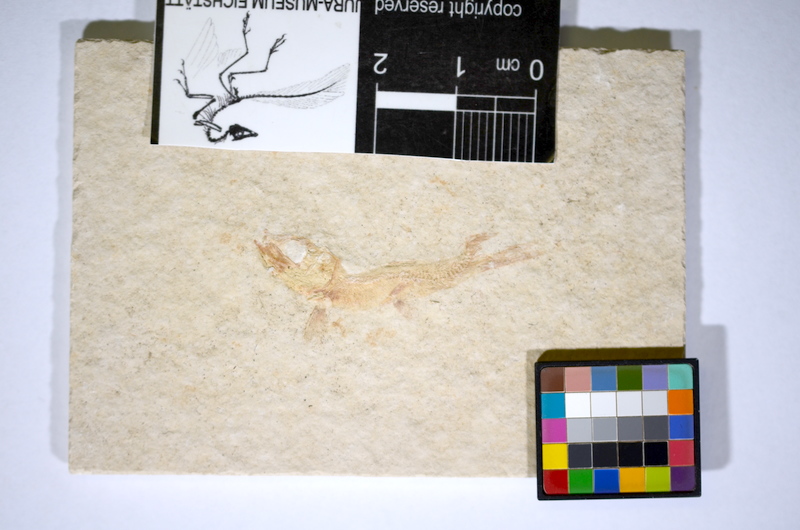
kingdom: Animalia
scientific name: Animalia
